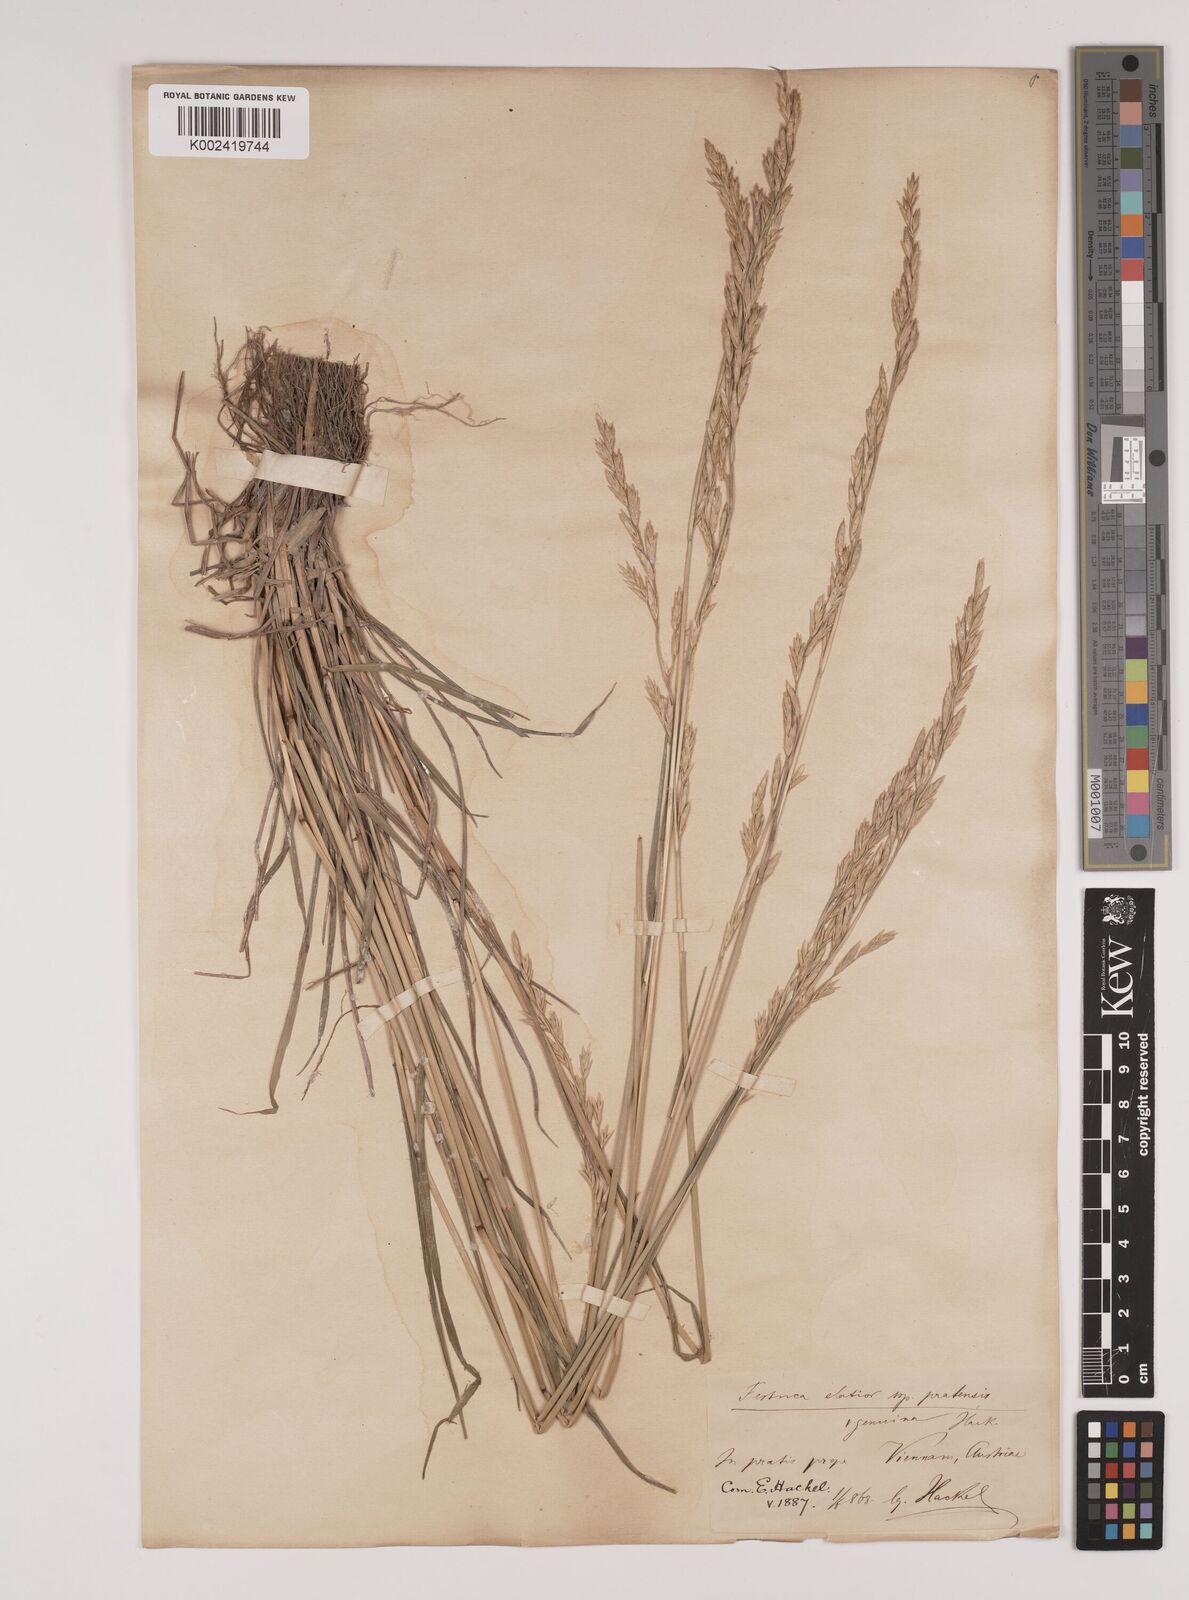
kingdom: Plantae
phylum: Tracheophyta
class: Liliopsida
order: Poales
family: Poaceae
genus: Lolium
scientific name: Lolium pratense
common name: Dover grass
